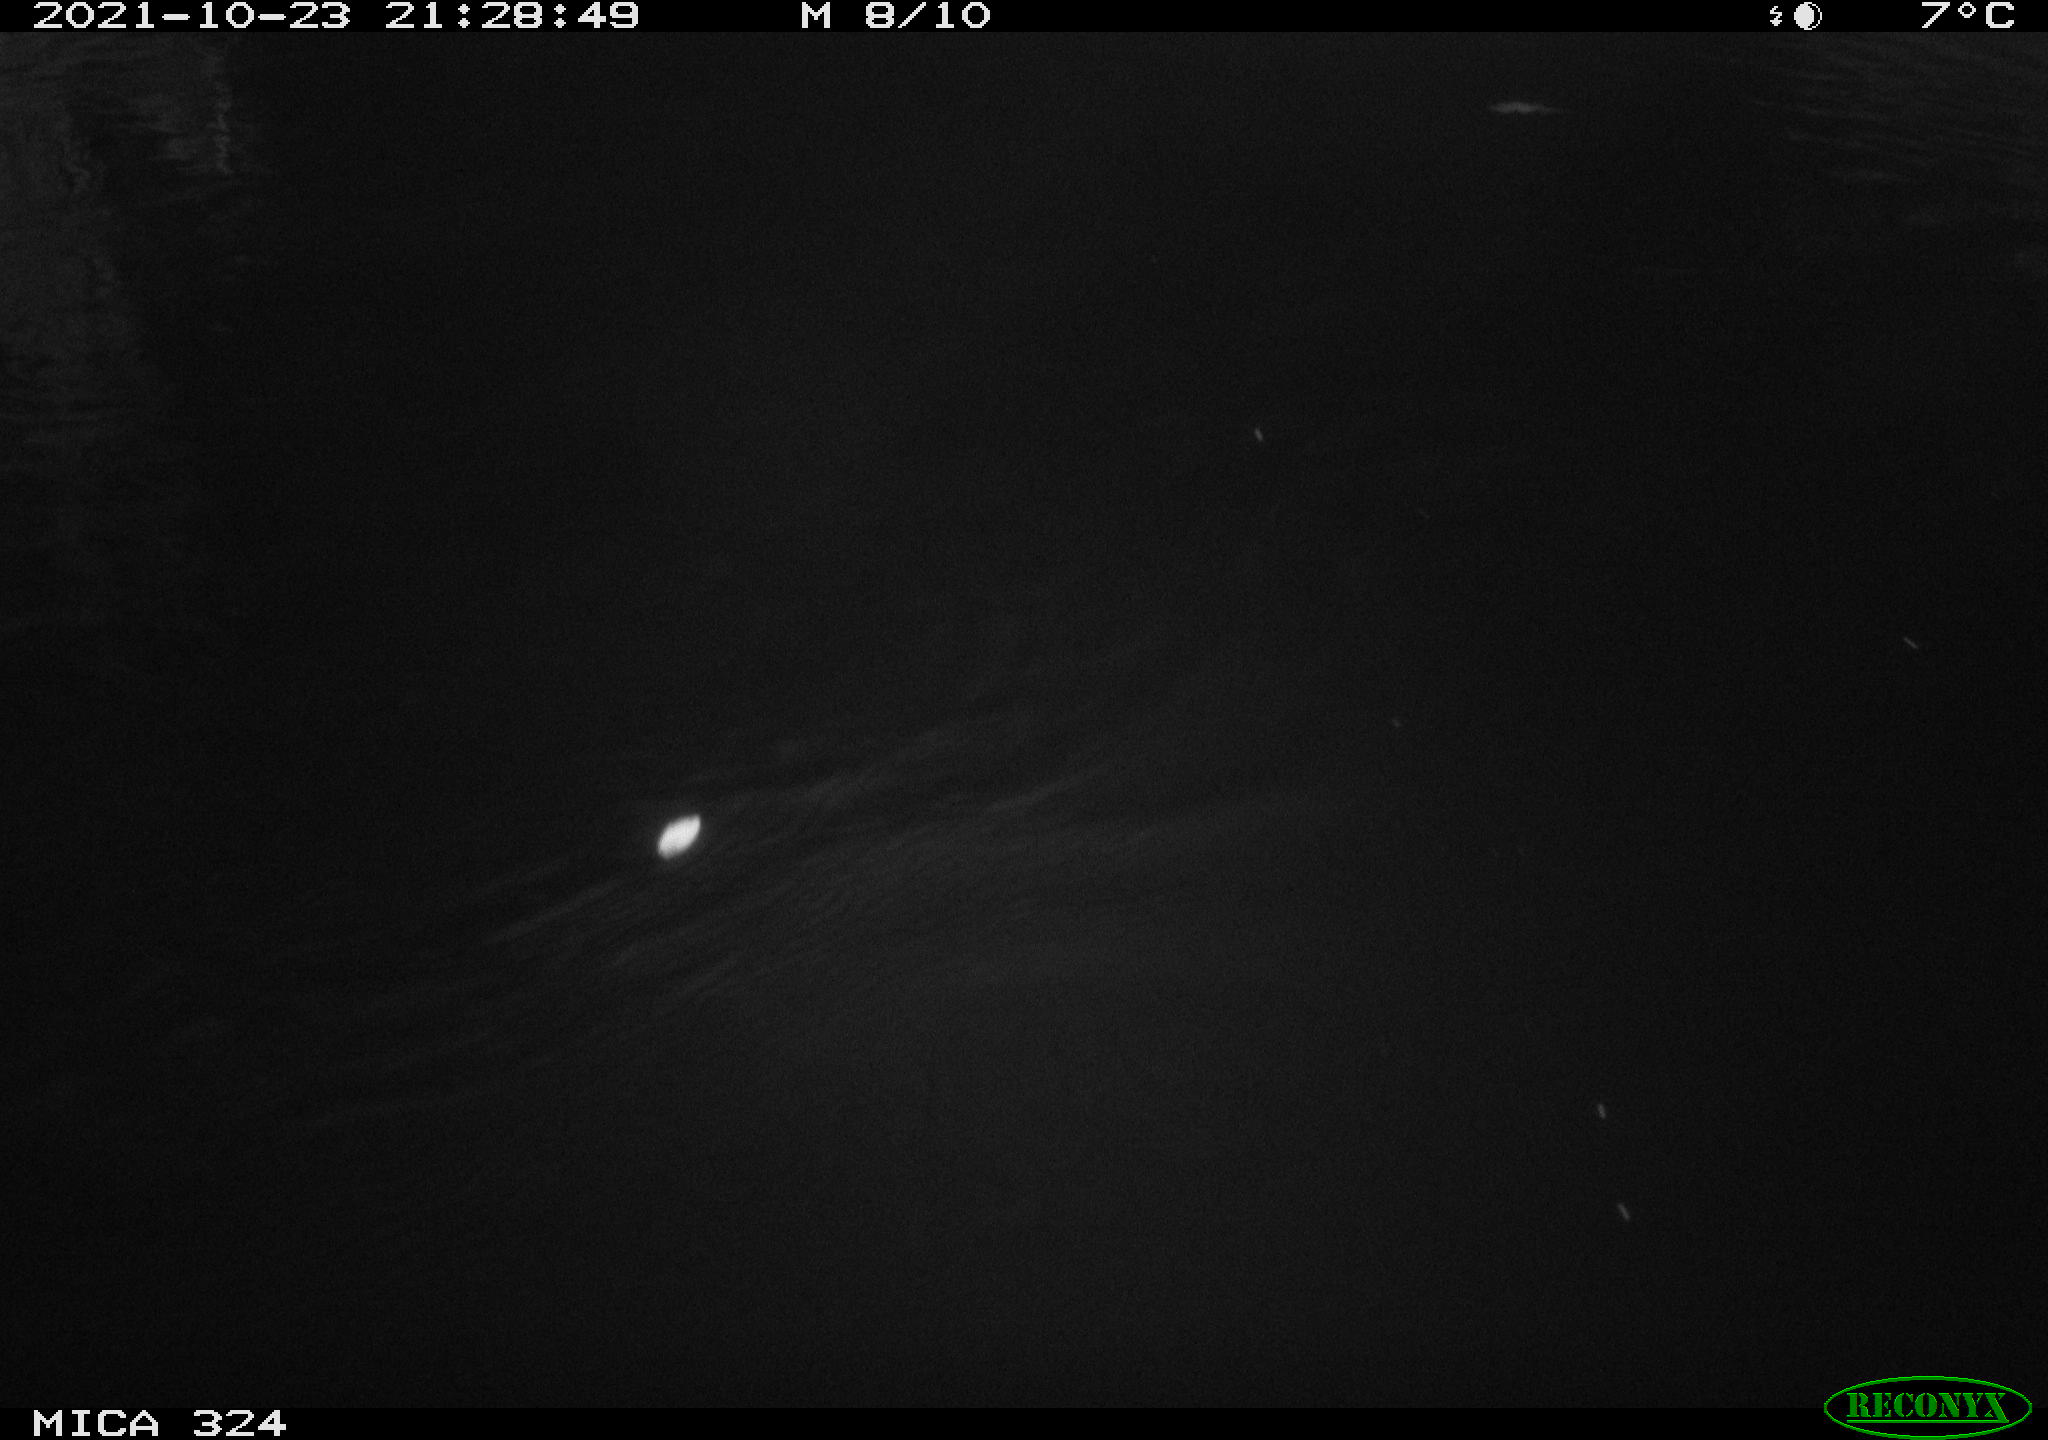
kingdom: Animalia
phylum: Chordata
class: Mammalia
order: Rodentia
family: Cricetidae
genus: Ondatra
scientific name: Ondatra zibethicus
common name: Muskrat
